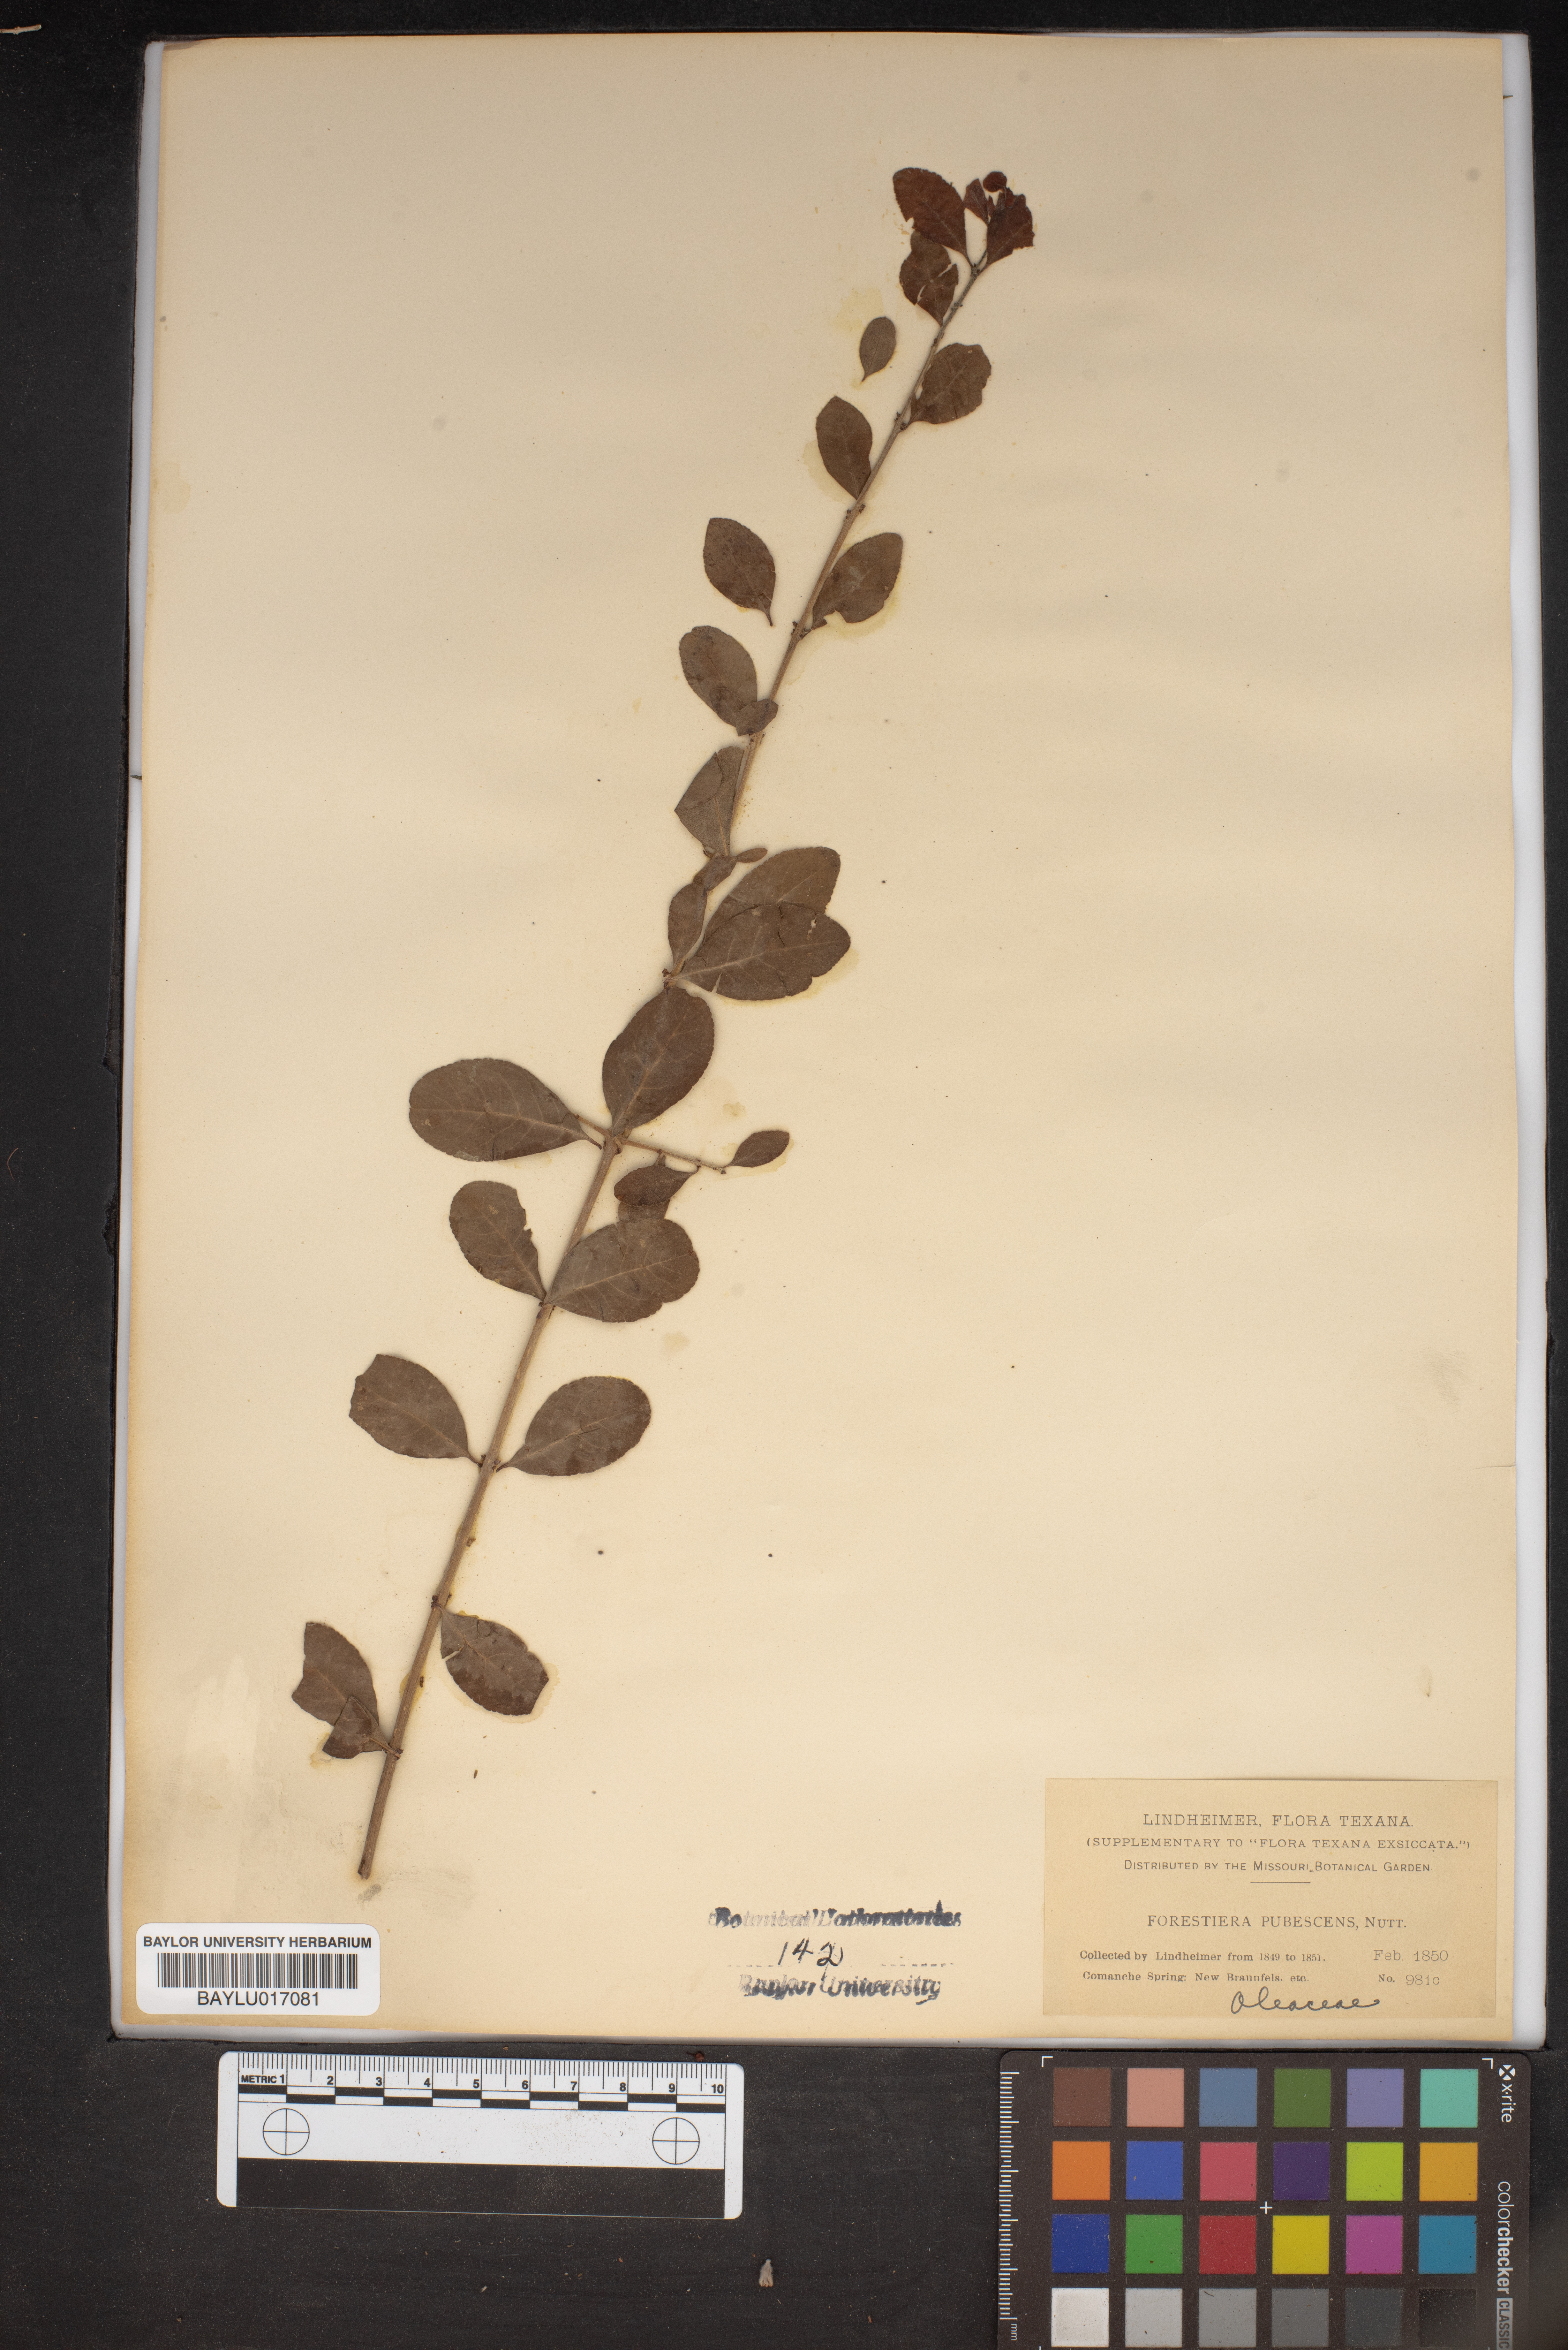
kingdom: Plantae
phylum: Tracheophyta
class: Magnoliopsida
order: Lamiales
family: Oleaceae
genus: Forestiera
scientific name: Forestiera pubescens
